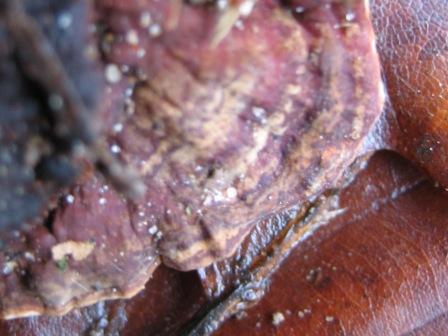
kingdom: Fungi
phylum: Basidiomycota
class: Agaricomycetes
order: Russulales
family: Bondarzewiaceae
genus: Heterobasidion
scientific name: Heterobasidion annosum
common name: almindelig rodfordærver
